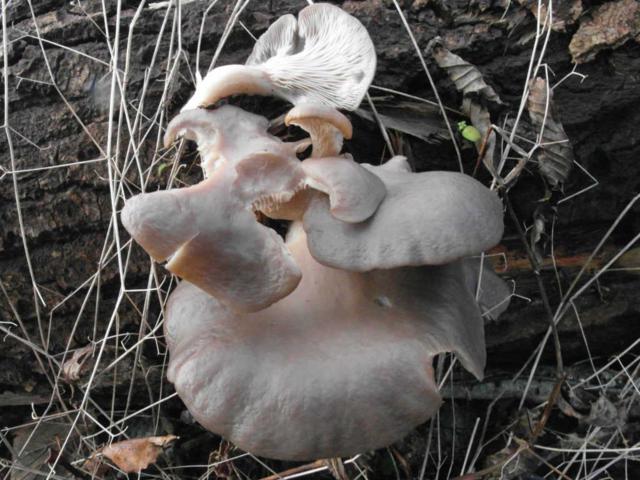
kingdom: Fungi
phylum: Basidiomycota
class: Agaricomycetes
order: Agaricales
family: Pleurotaceae
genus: Pleurotus
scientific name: Pleurotus ostreatus
